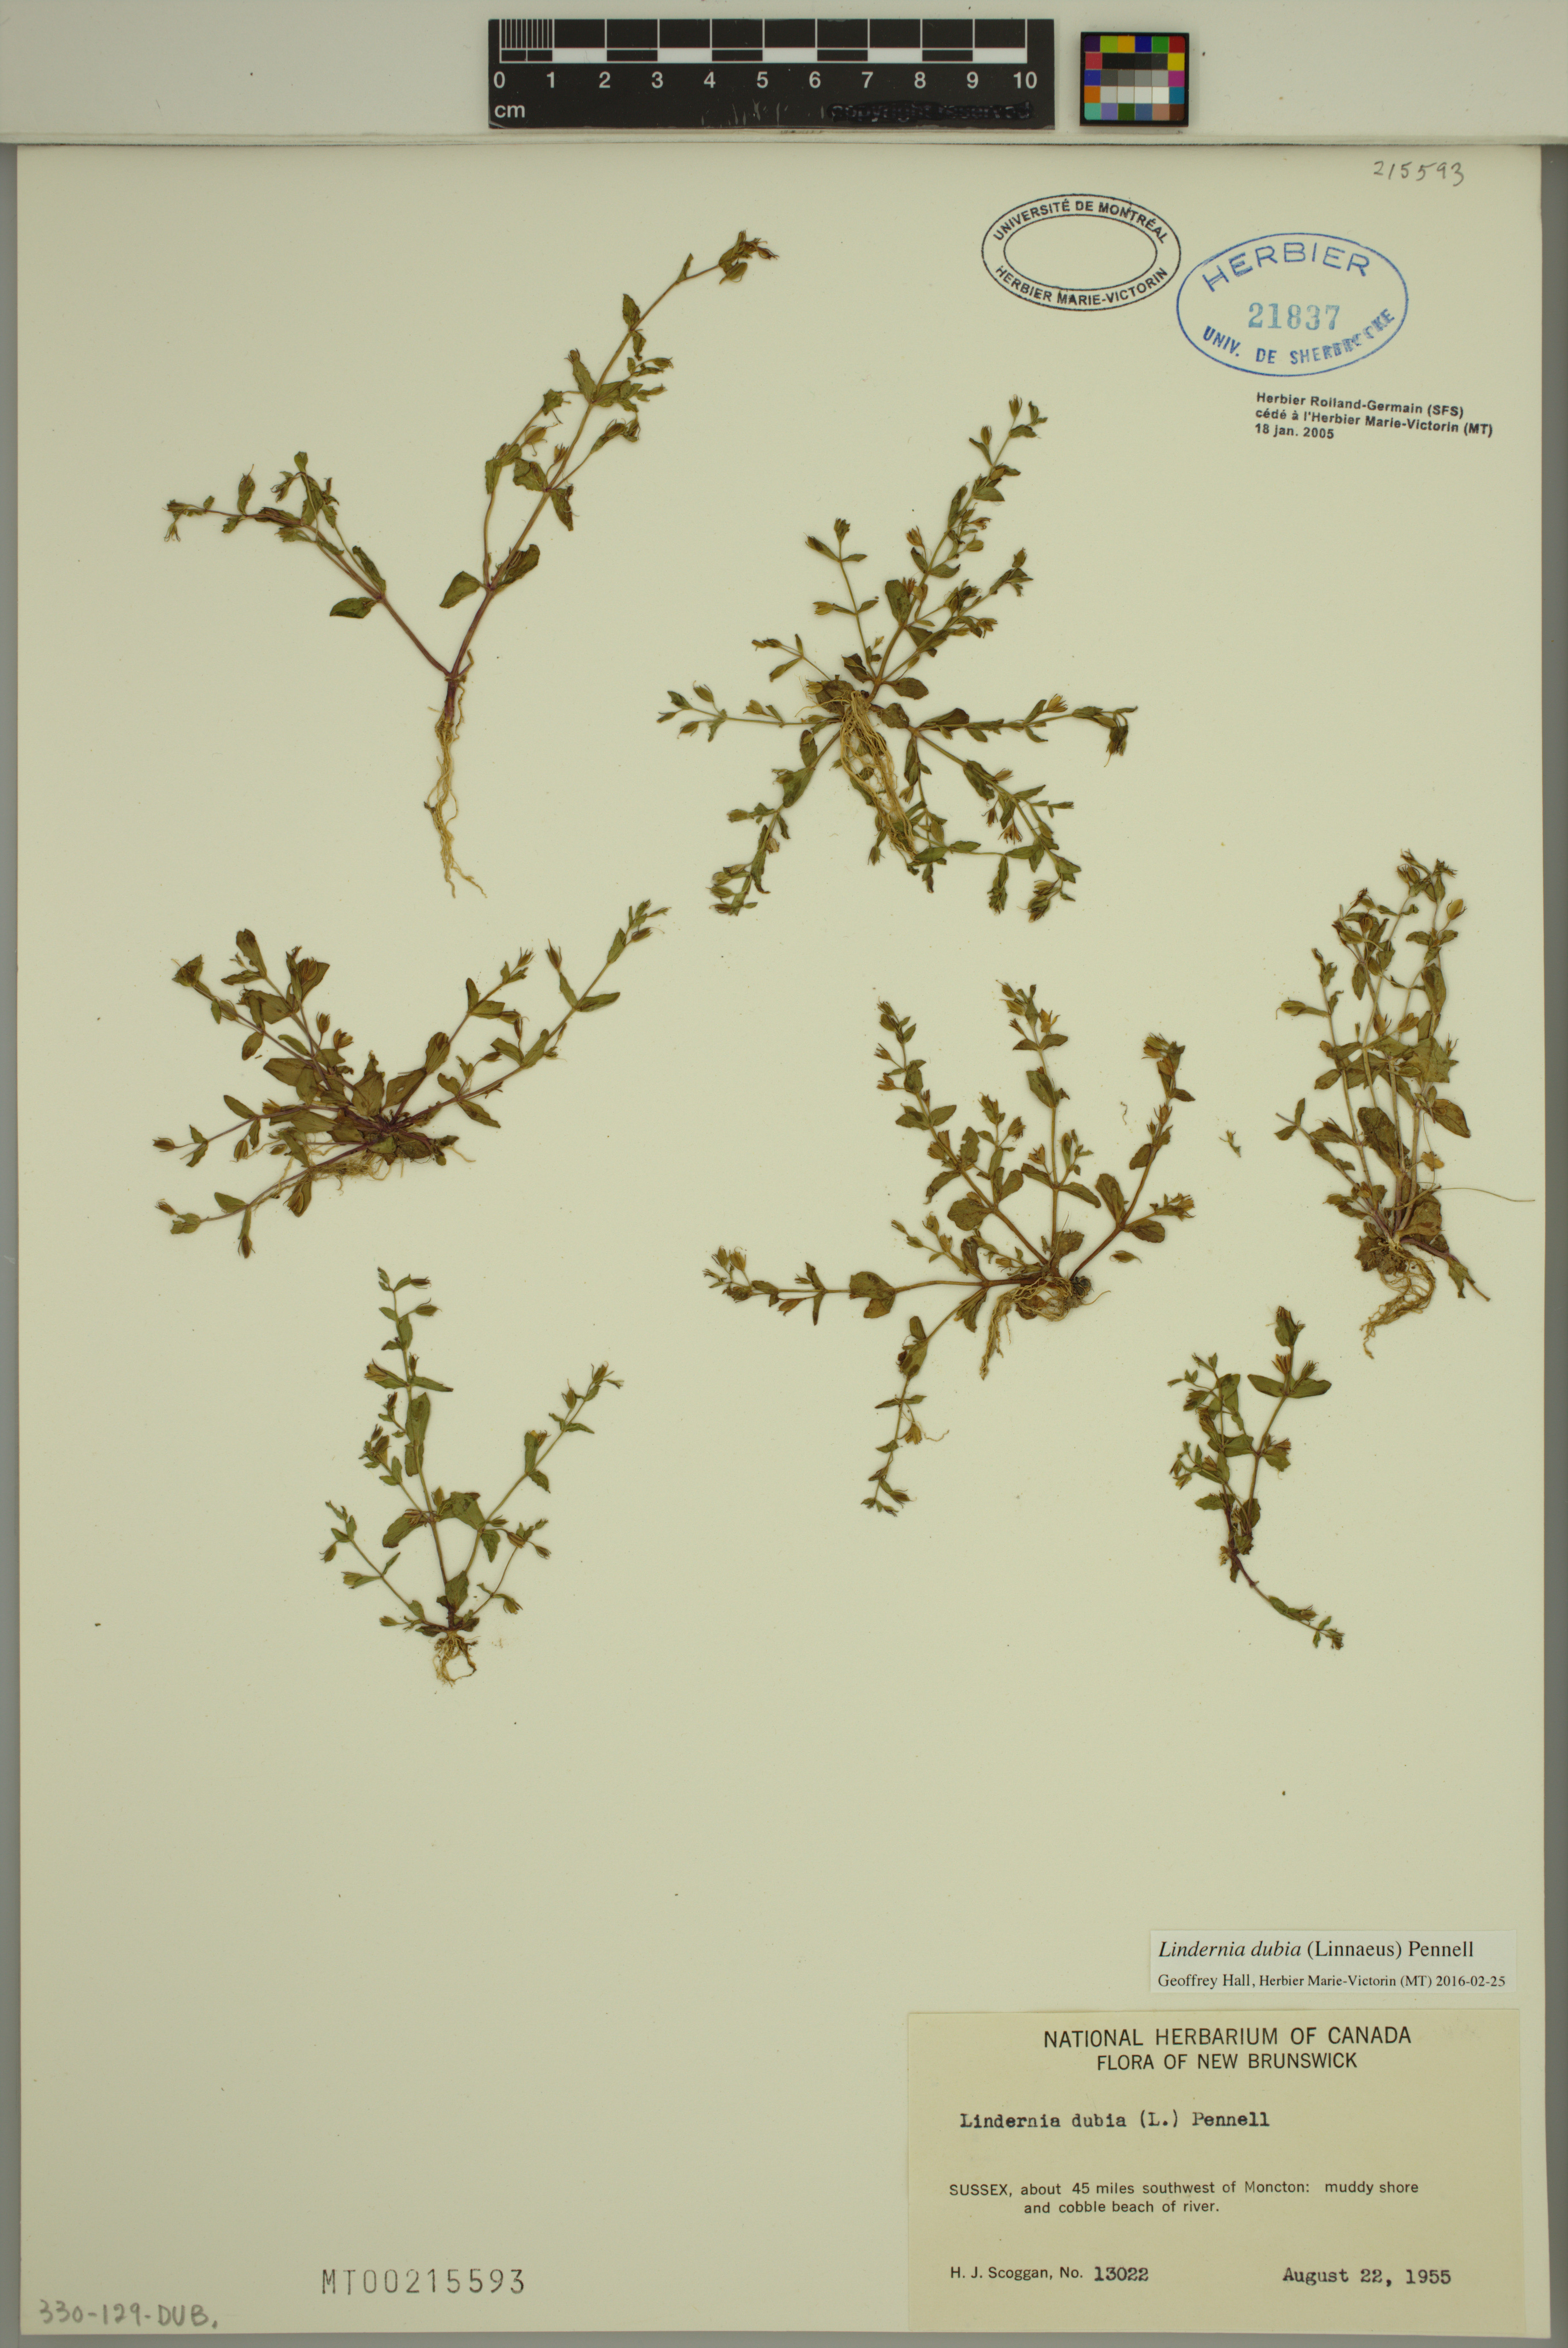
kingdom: Plantae
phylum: Tracheophyta
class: Magnoliopsida
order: Lamiales
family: Linderniaceae
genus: Lindernia
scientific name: Lindernia dubia
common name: Annual false pimpernel
